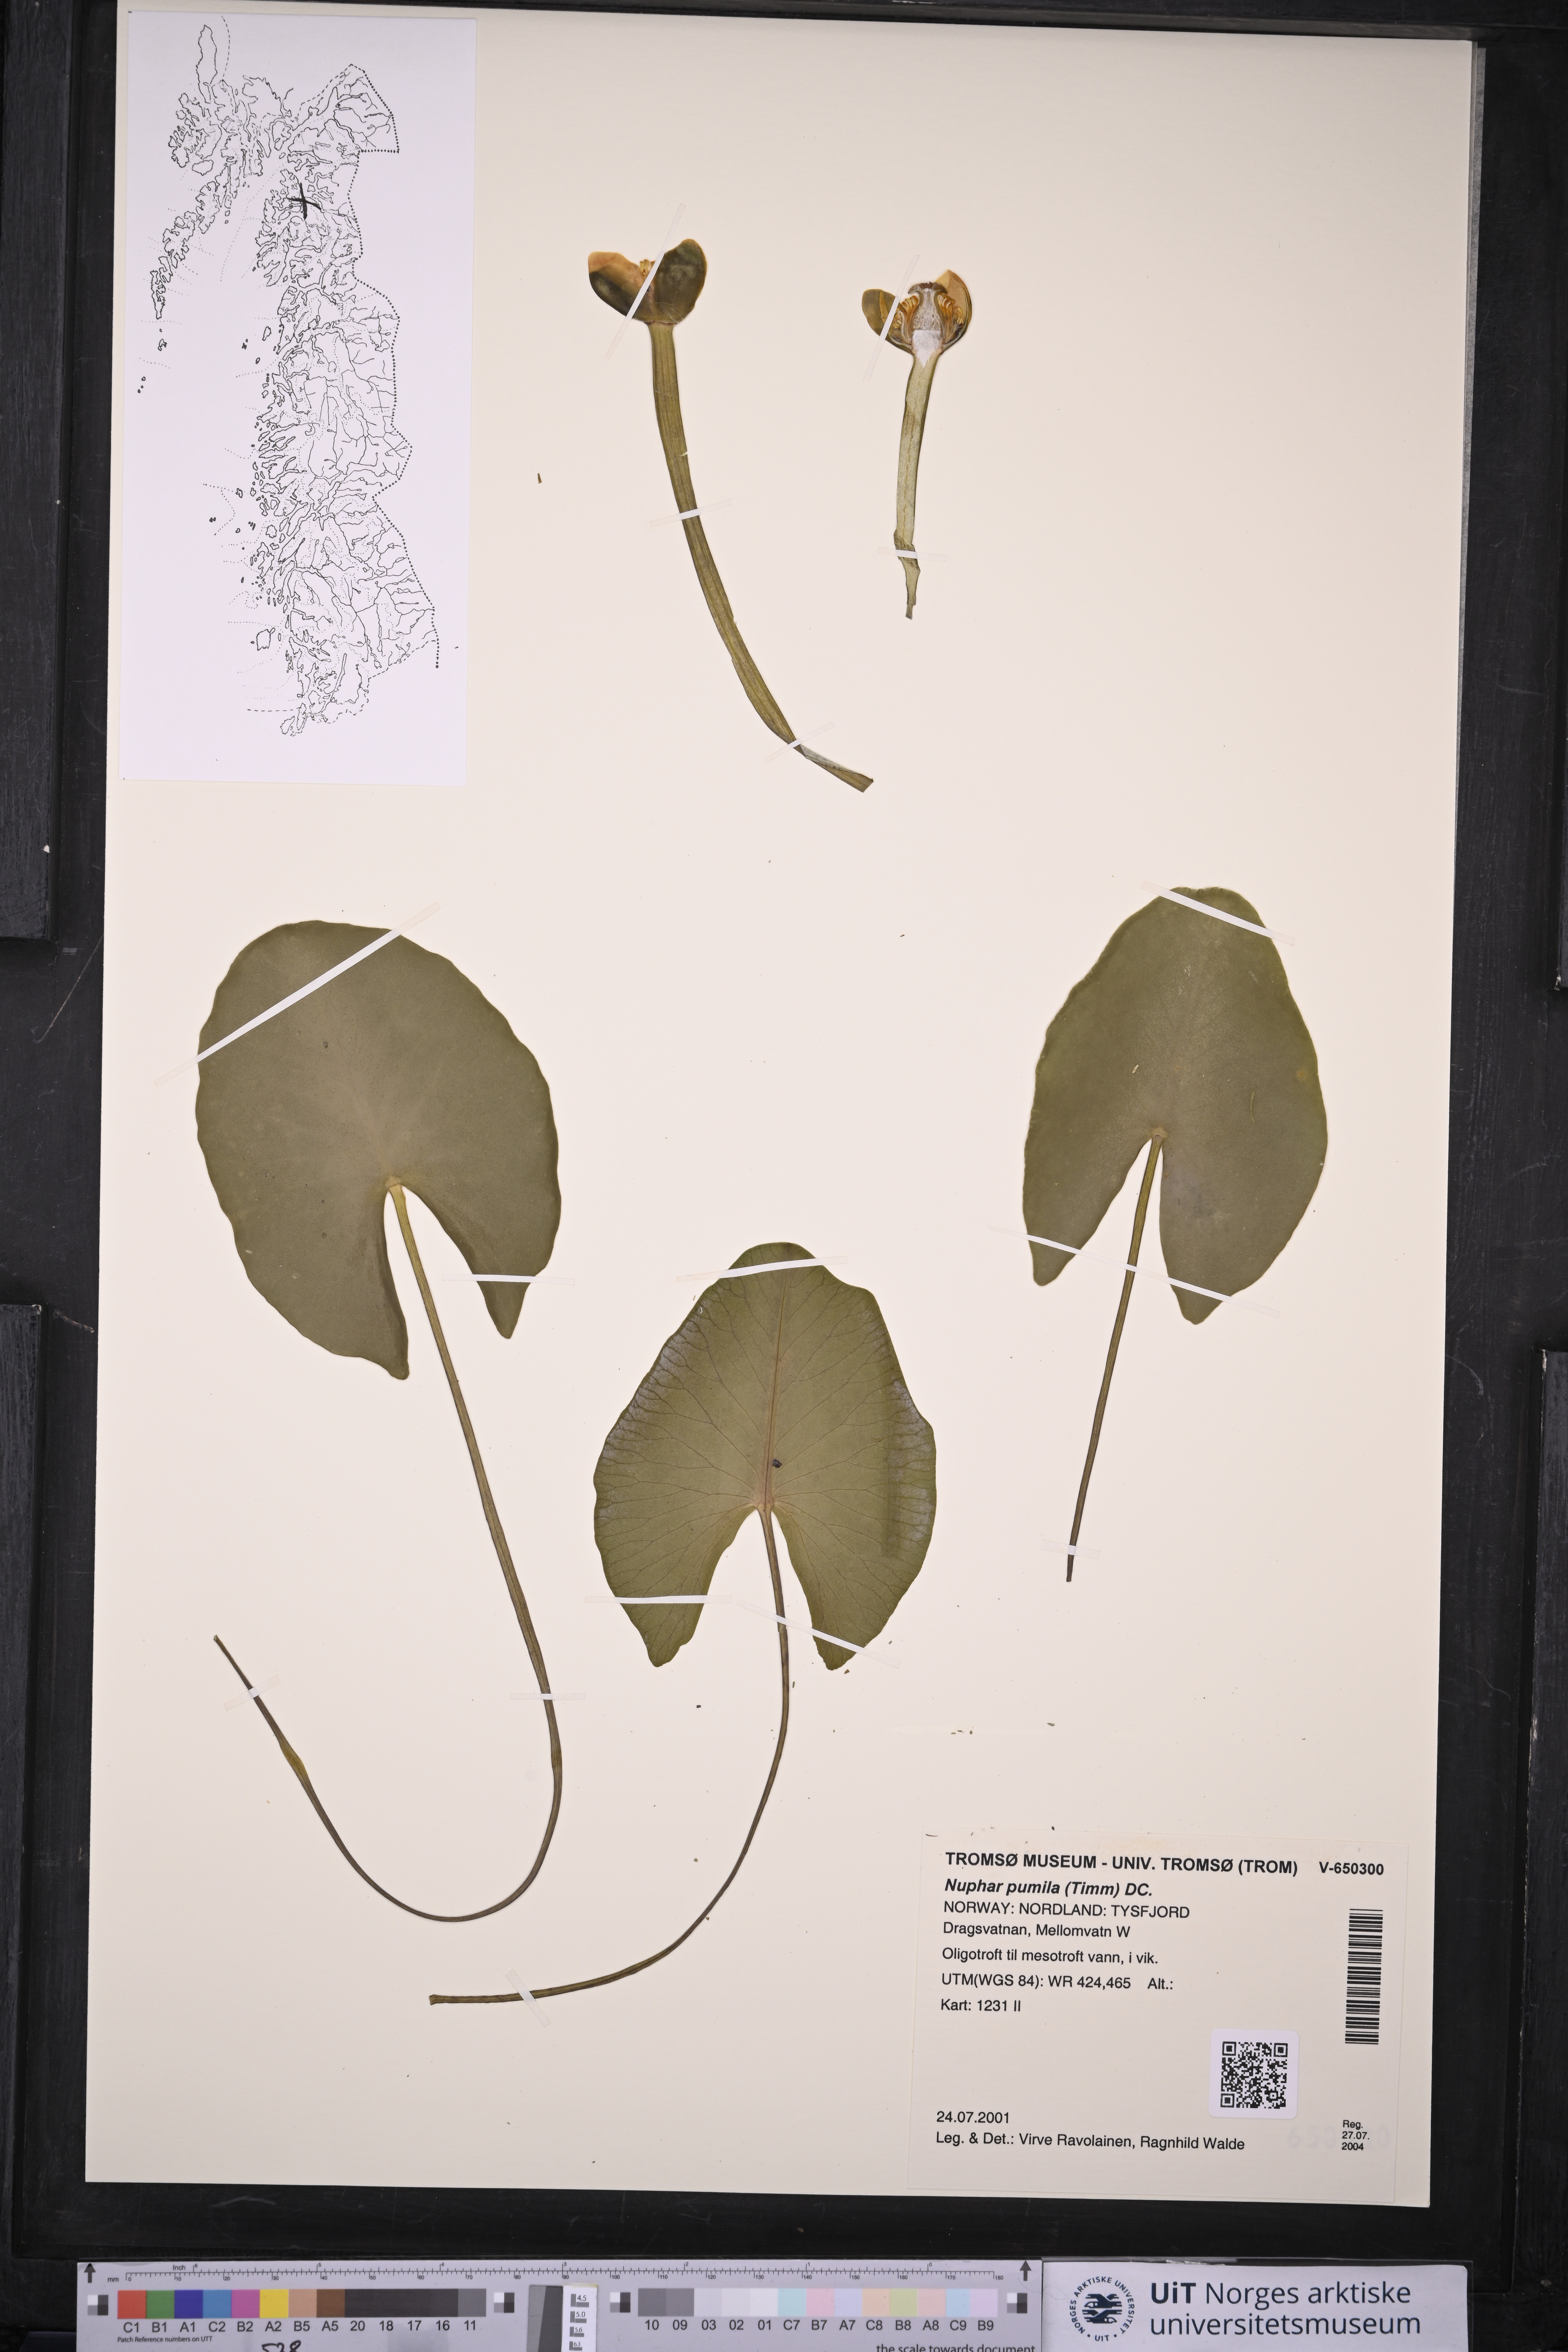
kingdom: Plantae
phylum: Tracheophyta
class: Magnoliopsida
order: Nymphaeales
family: Nymphaeaceae
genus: Nuphar
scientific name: Nuphar pumila
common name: Least water-lily
